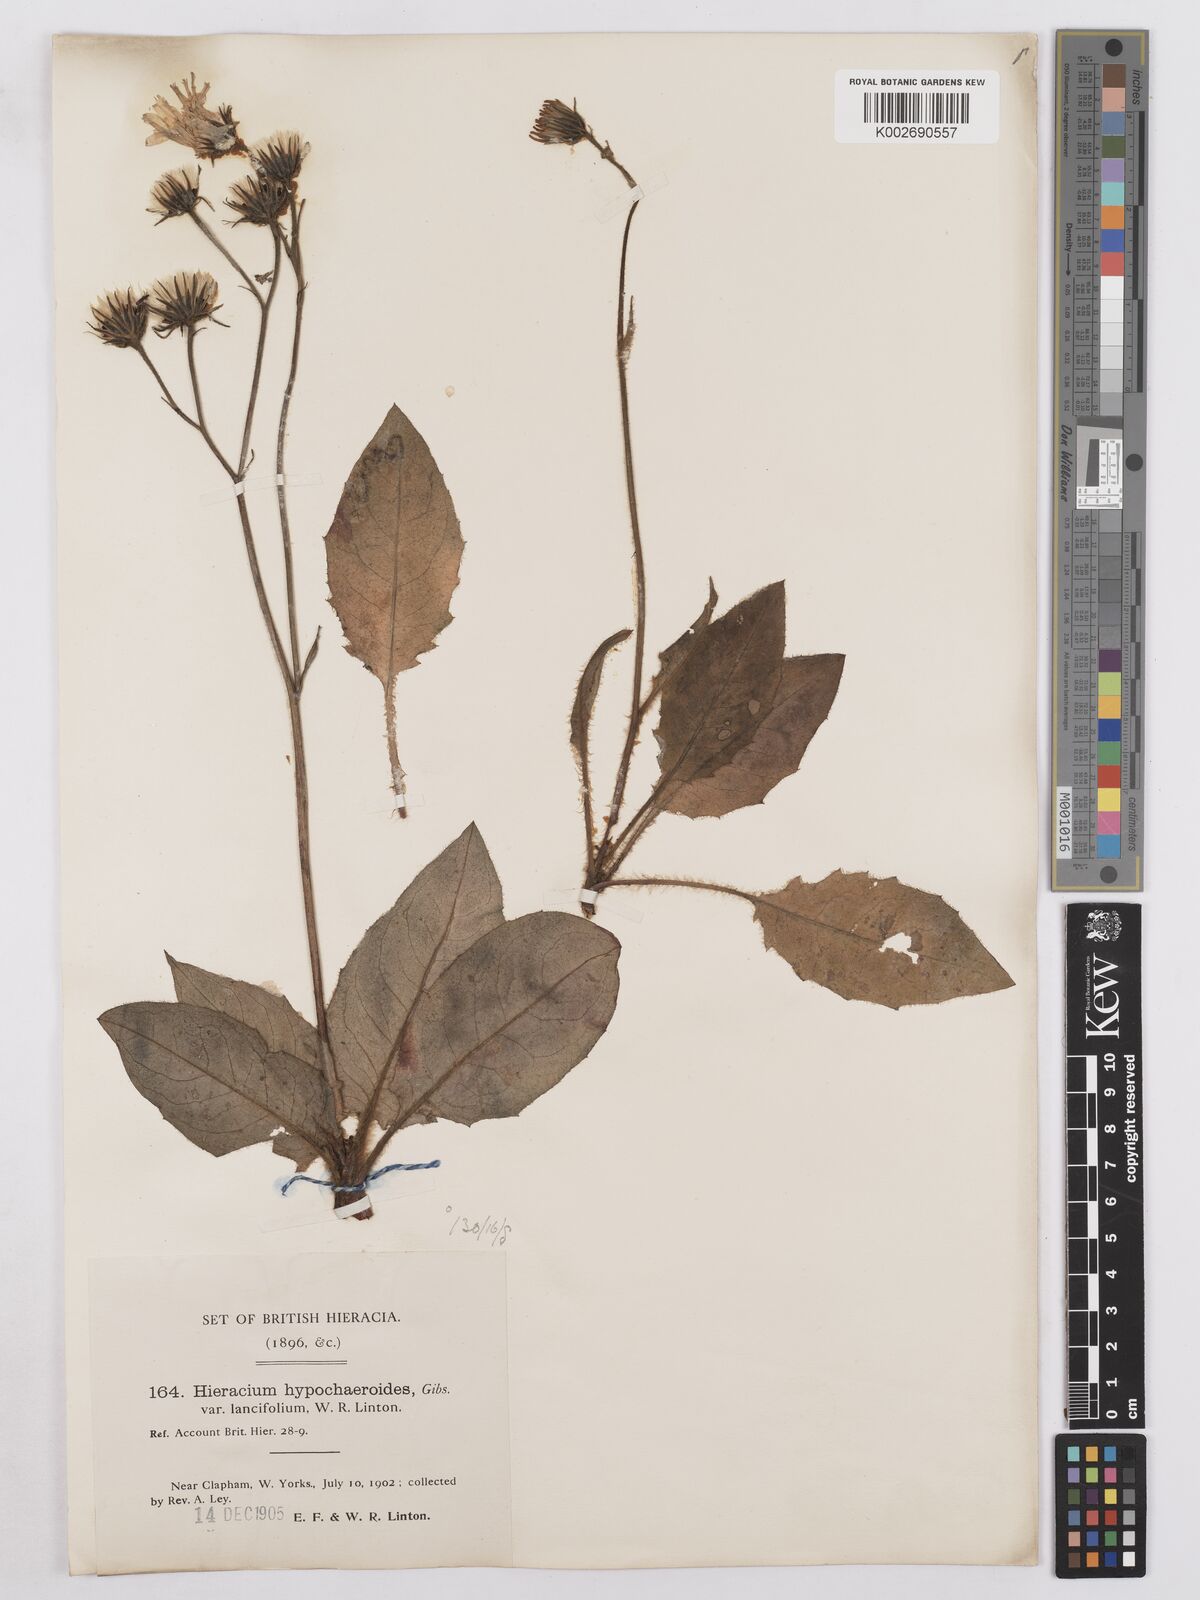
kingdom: Plantae
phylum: Tracheophyta
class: Magnoliopsida
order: Asterales
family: Asteraceae
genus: Hieracium
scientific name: Hieracium stictum
